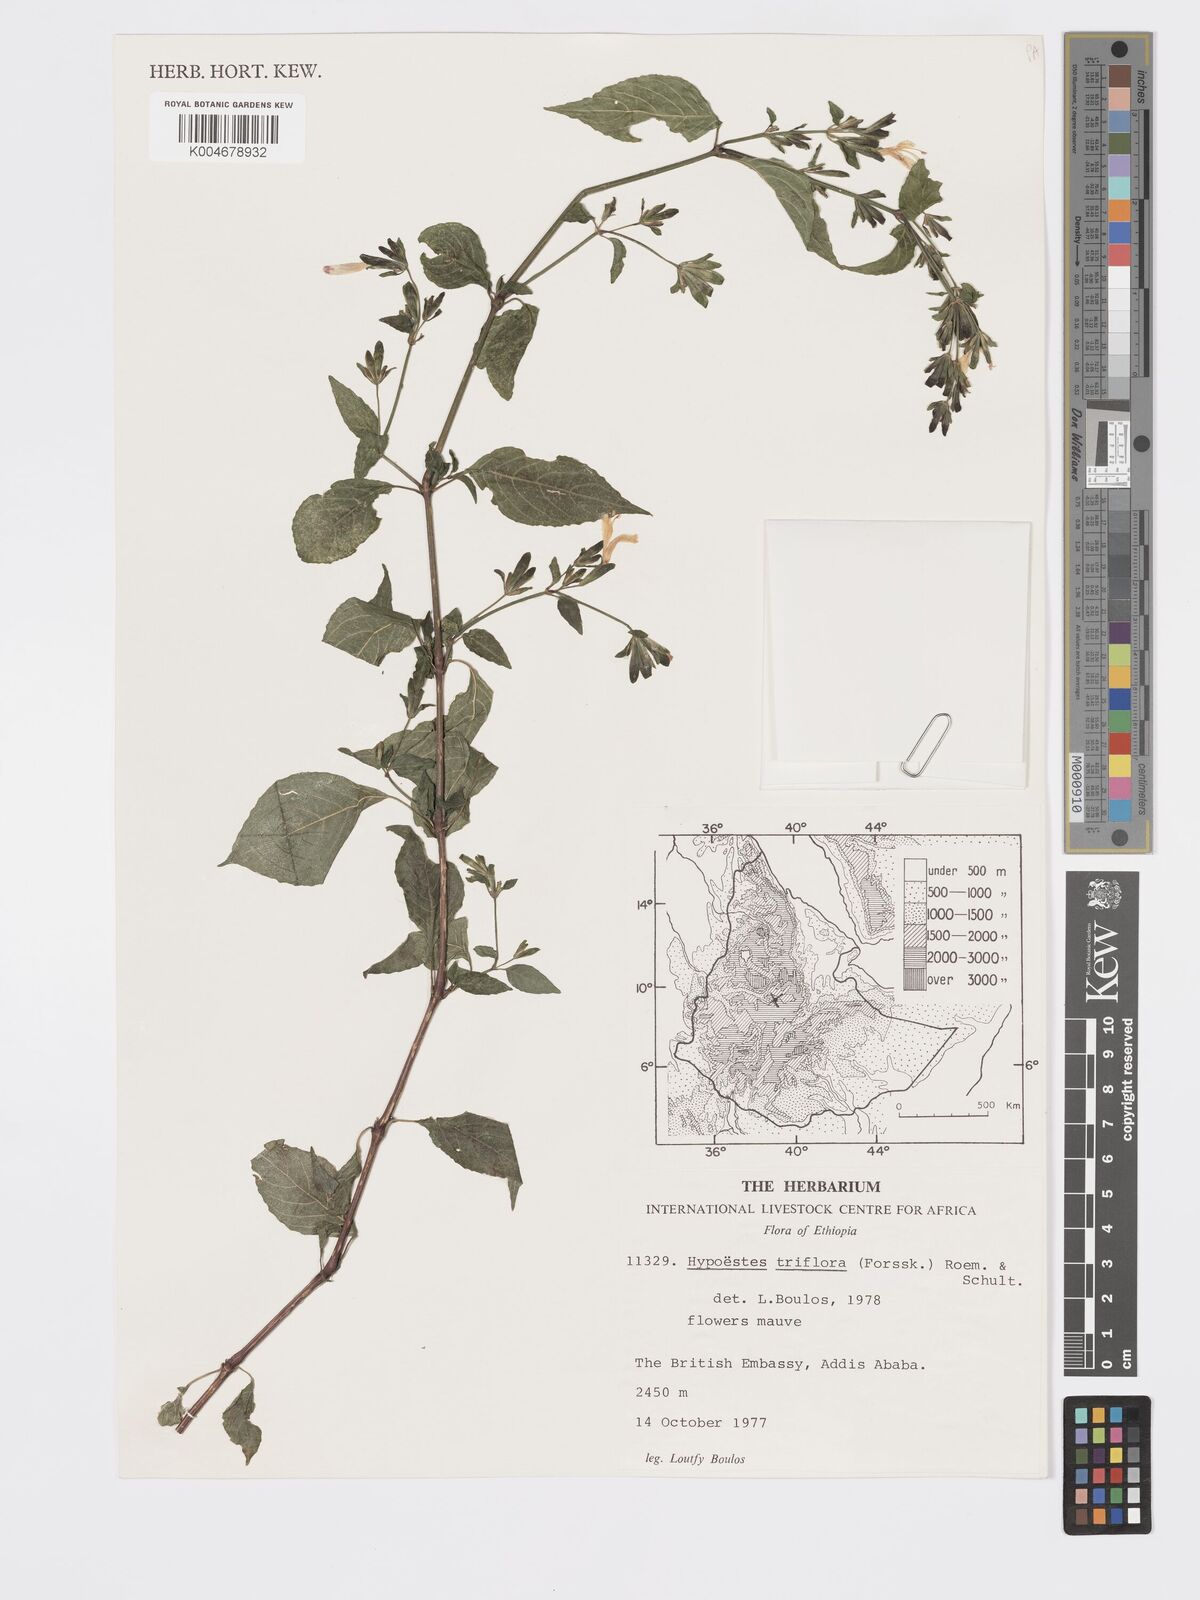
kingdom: Plantae
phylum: Tracheophyta
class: Magnoliopsida
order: Lamiales
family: Acanthaceae
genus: Hypoestes
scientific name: Hypoestes triflora
